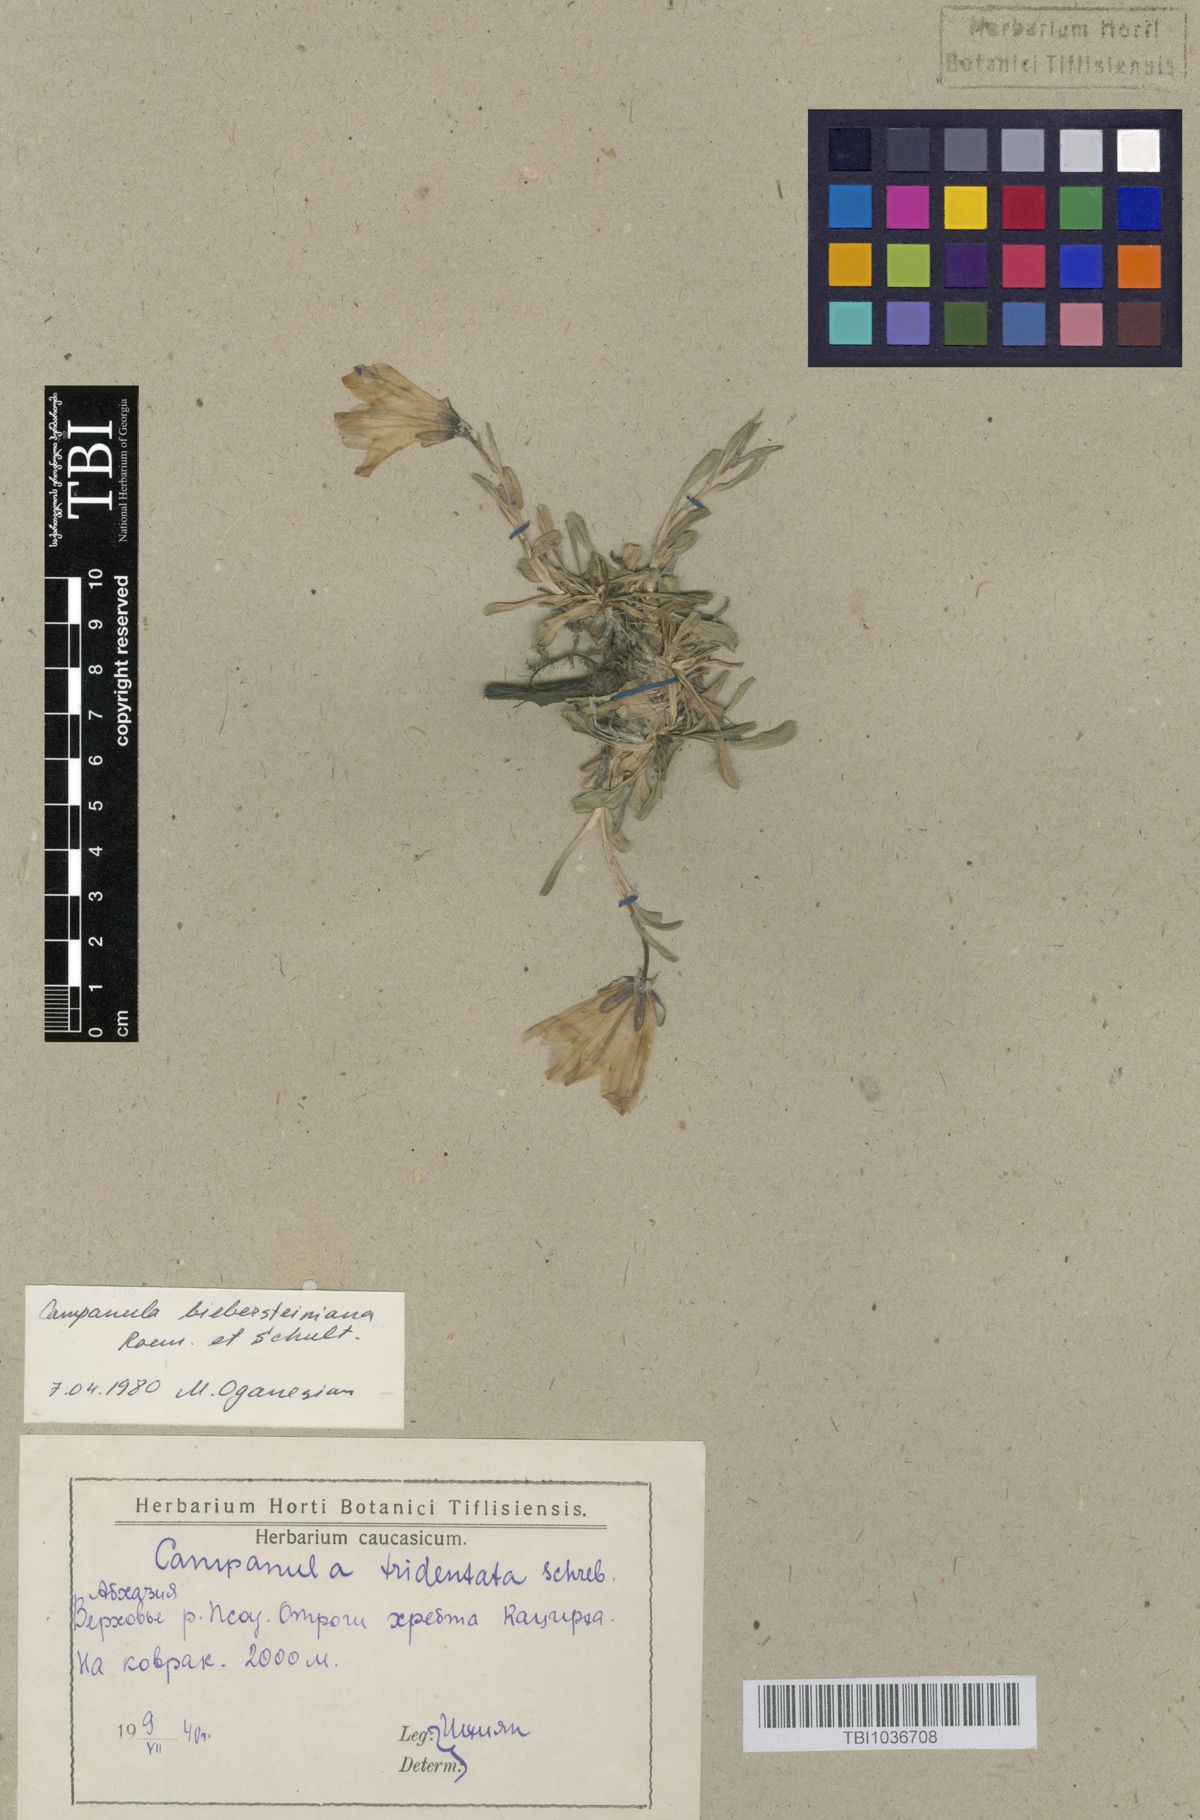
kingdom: Plantae
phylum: Tracheophyta
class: Magnoliopsida
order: Asterales
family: Campanulaceae
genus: Campanula
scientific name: Campanula tridentata
